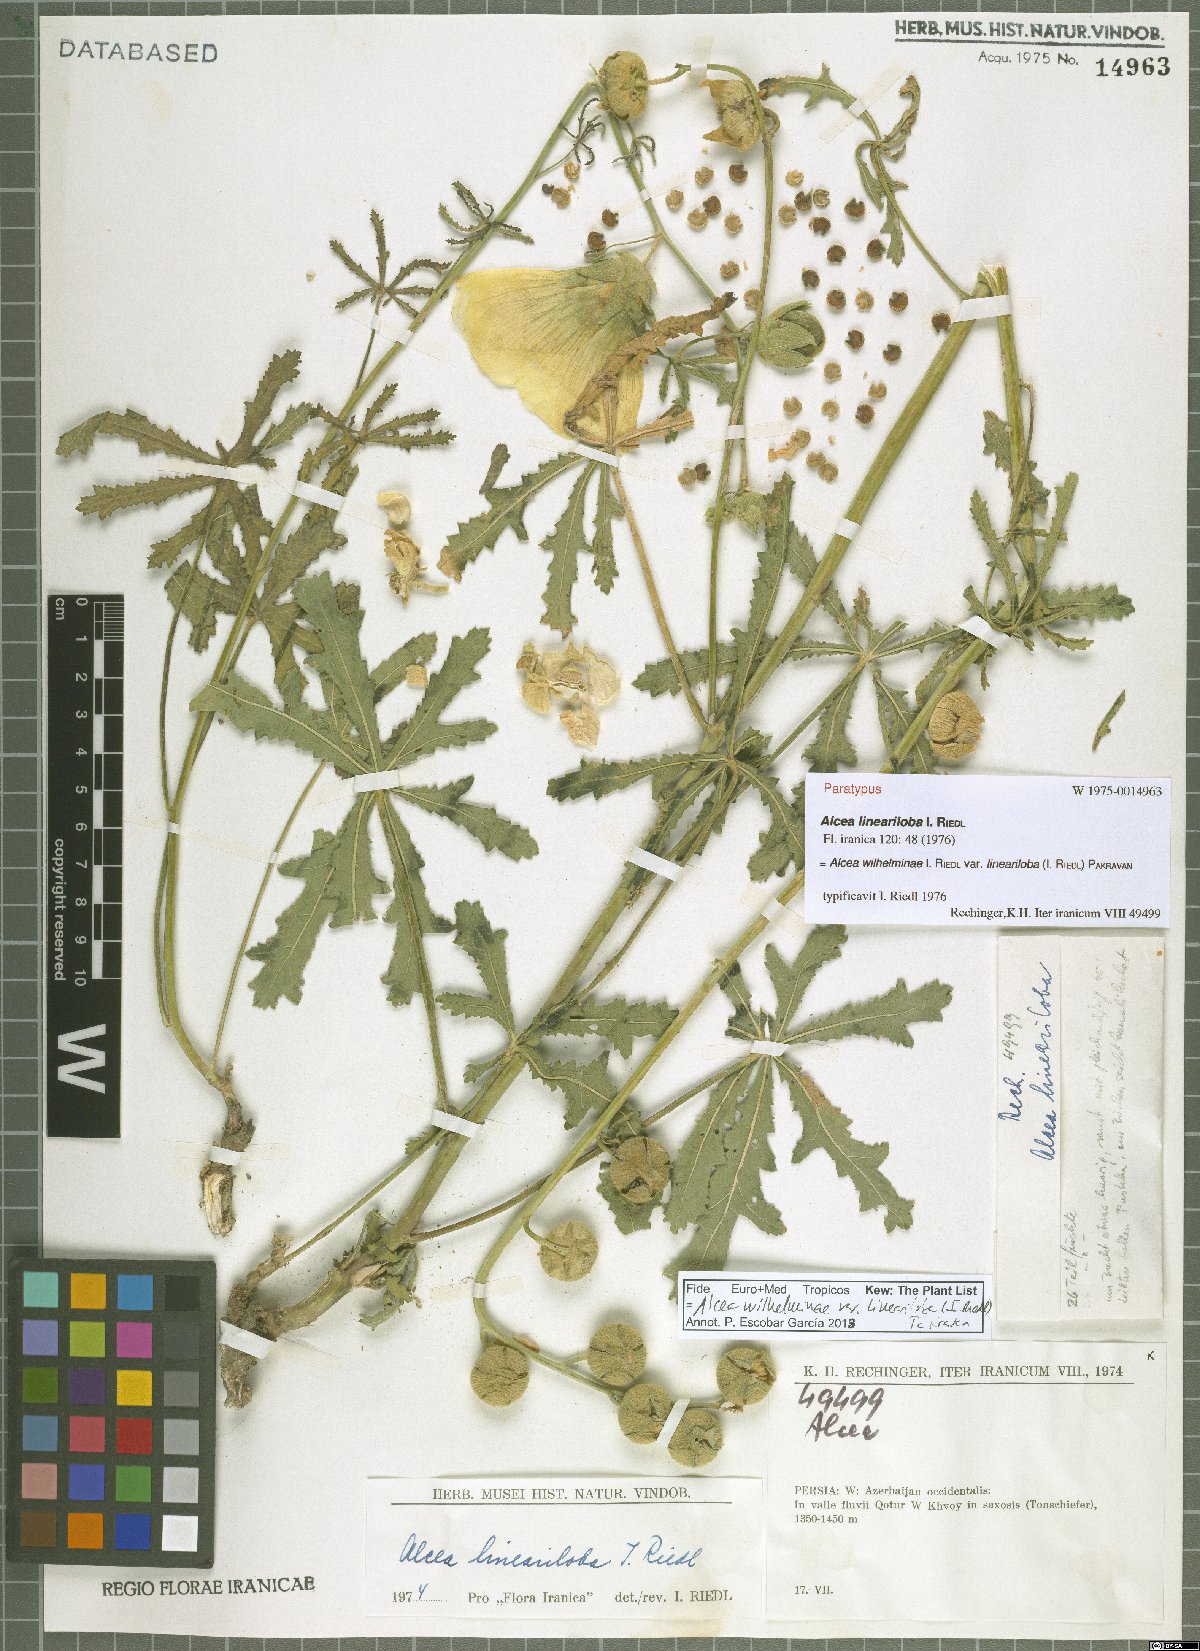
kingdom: Plantae
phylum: Tracheophyta
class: Magnoliopsida
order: Malvales
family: Malvaceae
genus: Alcea
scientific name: Alcea wilhelminae
